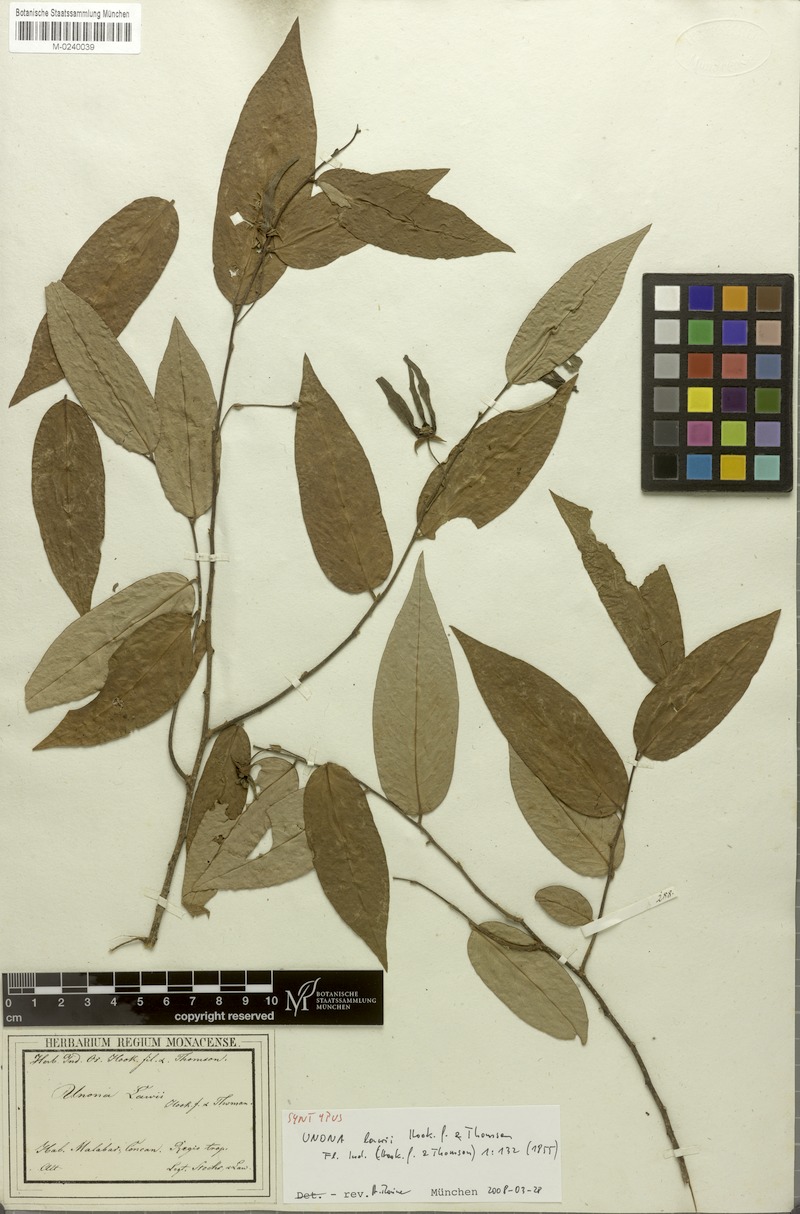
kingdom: Plantae
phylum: Tracheophyta
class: Magnoliopsida
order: Magnoliales
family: Annonaceae
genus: Desmos
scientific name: Desmos chinensis
